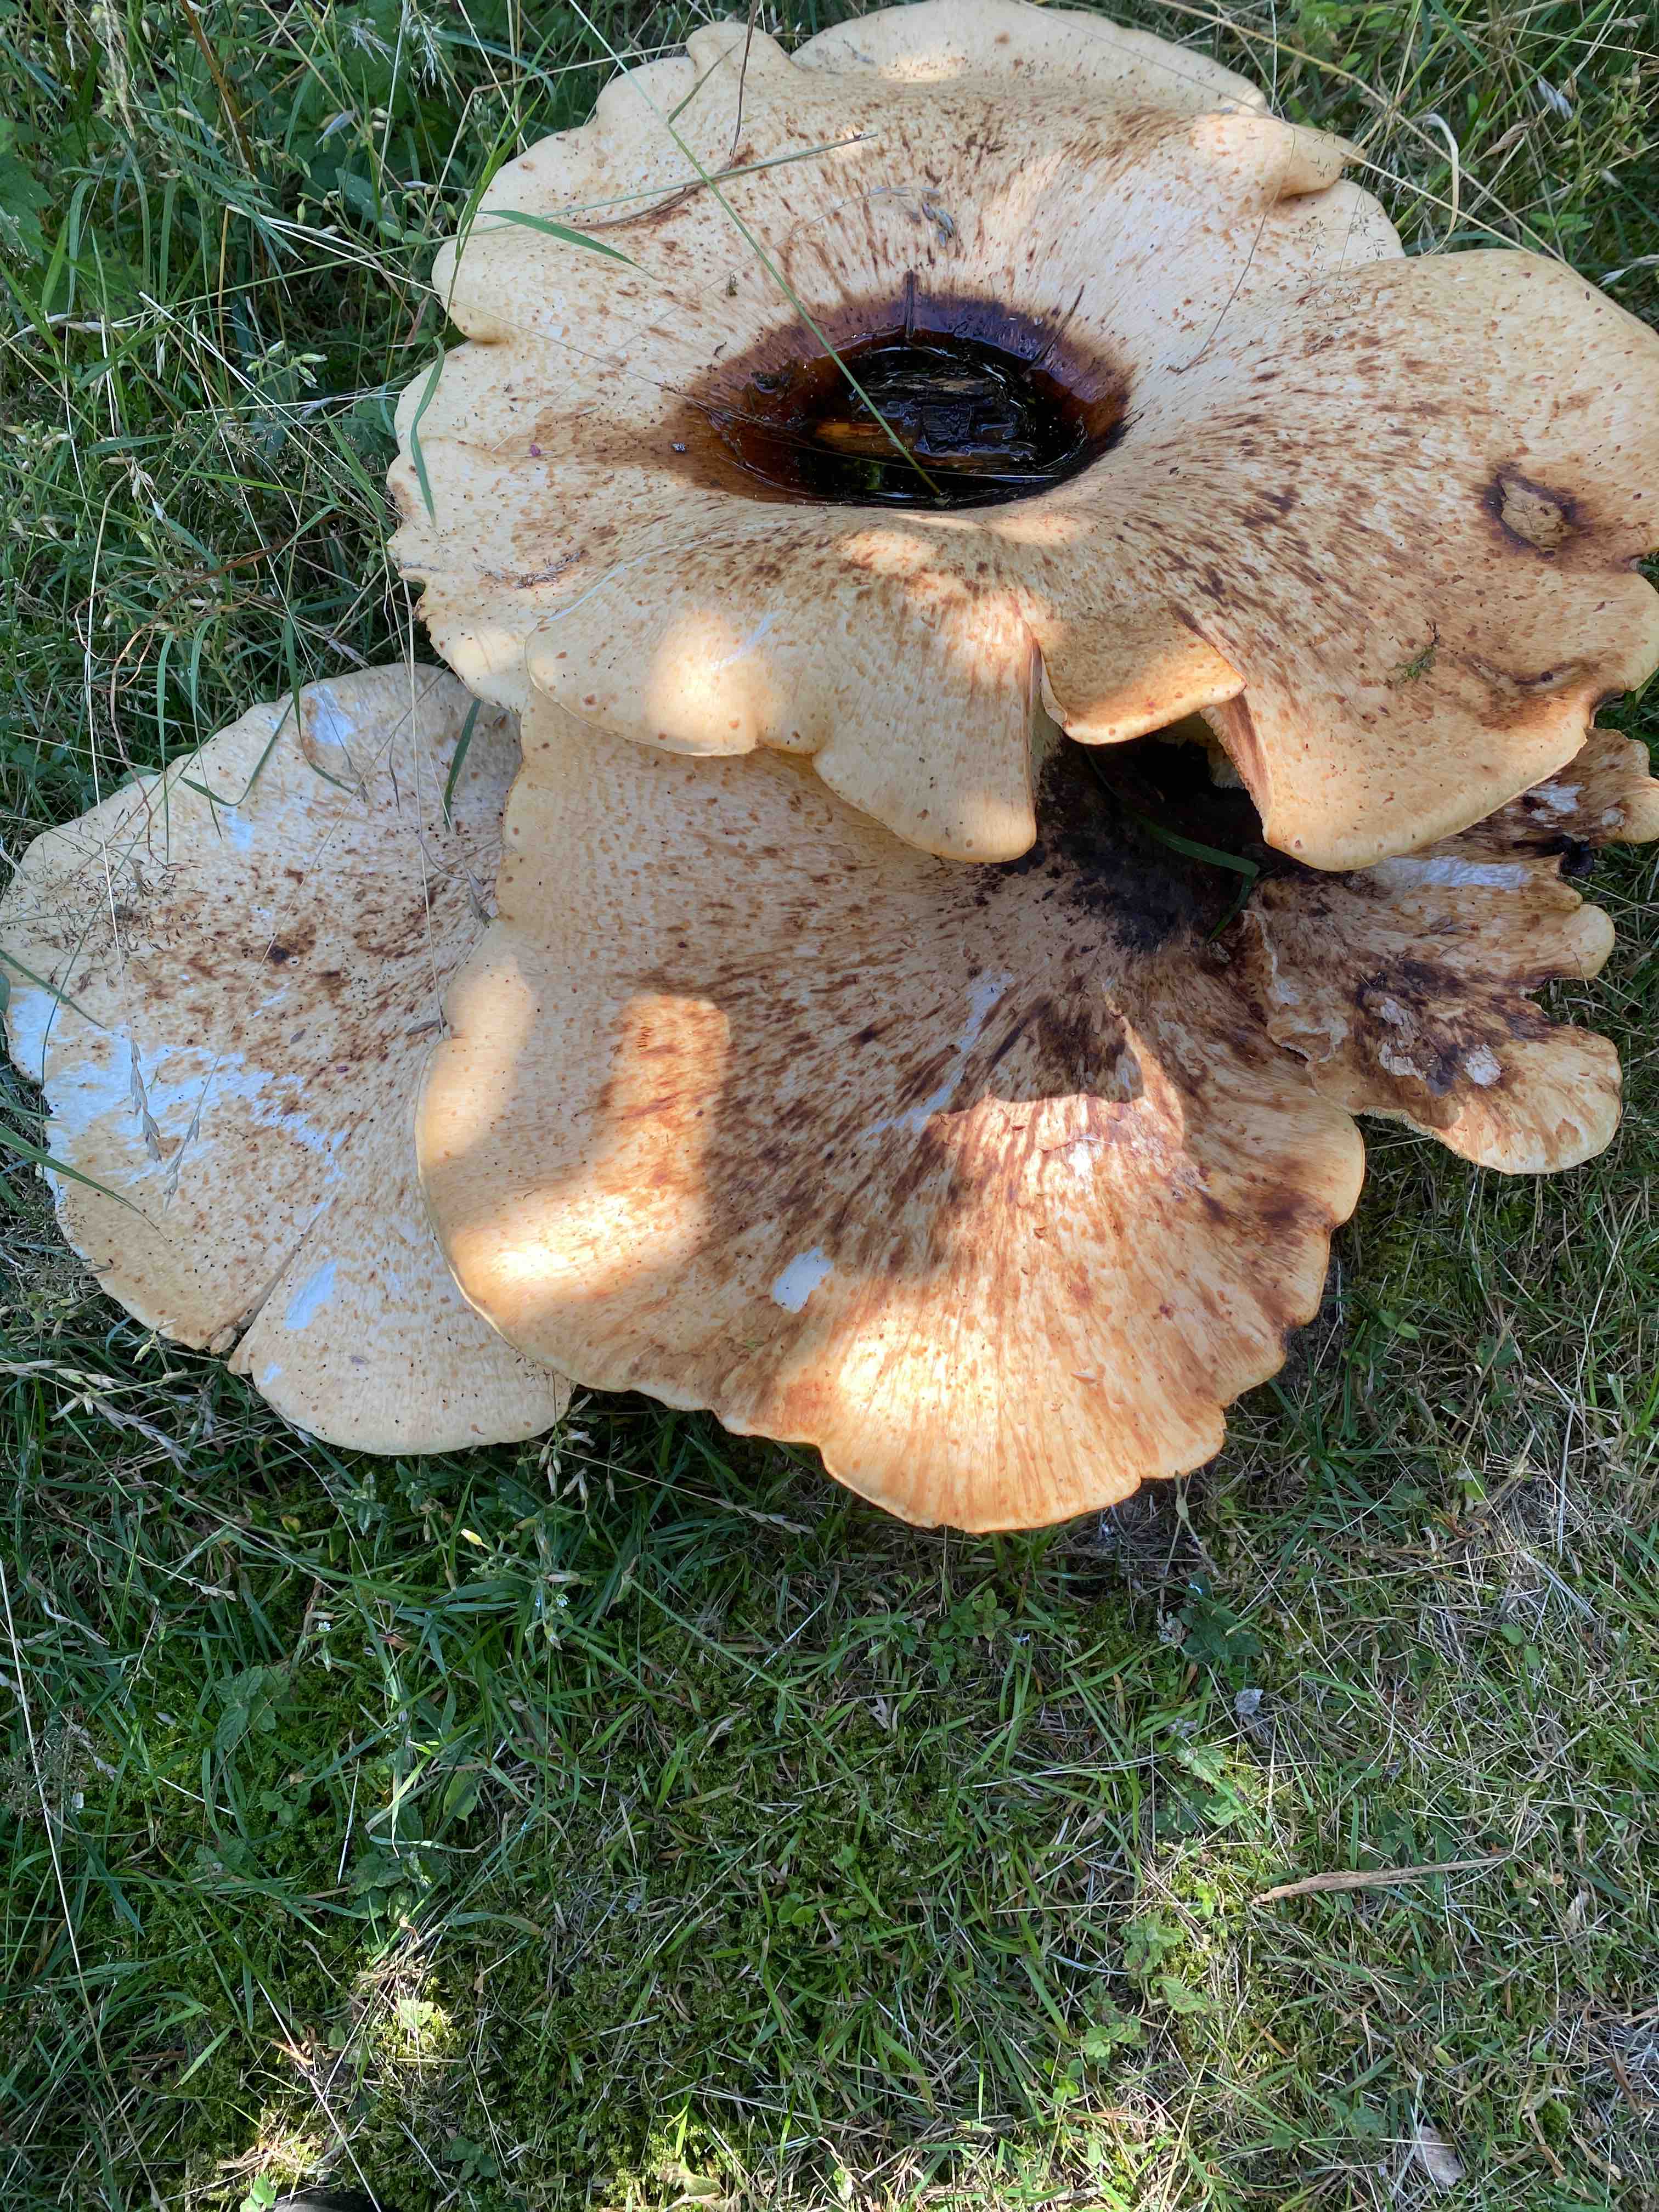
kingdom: Fungi
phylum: Basidiomycota
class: Agaricomycetes
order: Polyporales
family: Meripilaceae
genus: Meripilus
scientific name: Meripilus giganteus
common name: kæmpeporesvamp
